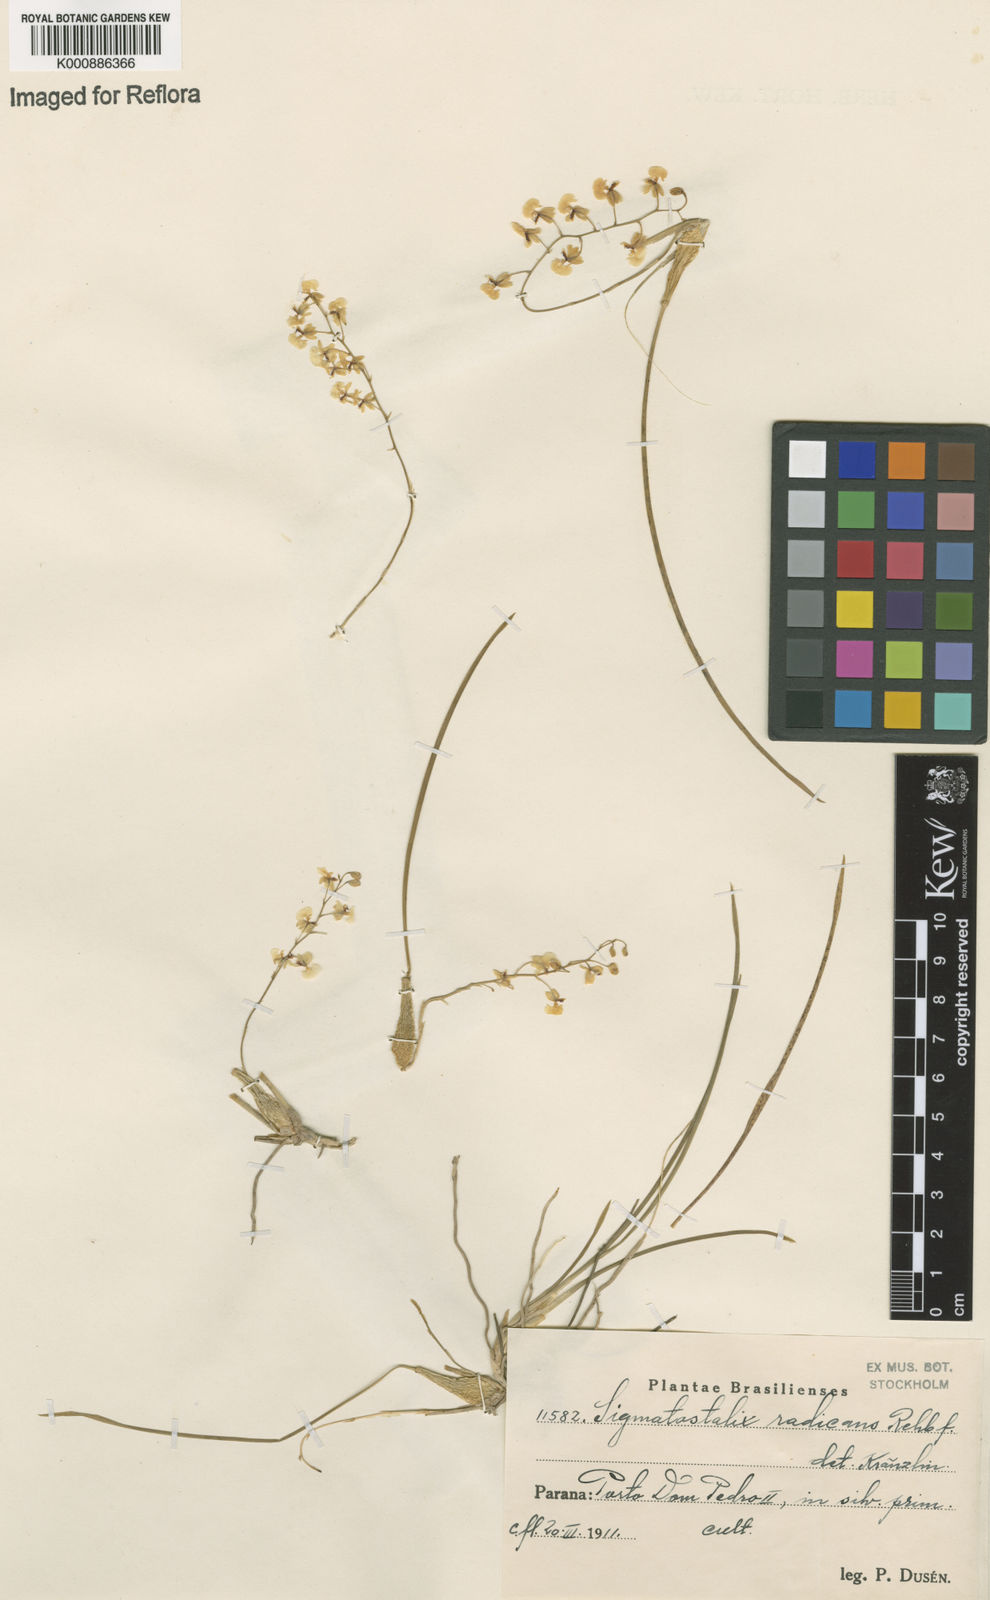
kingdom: Plantae
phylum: Tracheophyta
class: Liliopsida
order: Asparagales
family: Orchidaceae
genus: Gomesa
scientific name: Gomesa radicans
